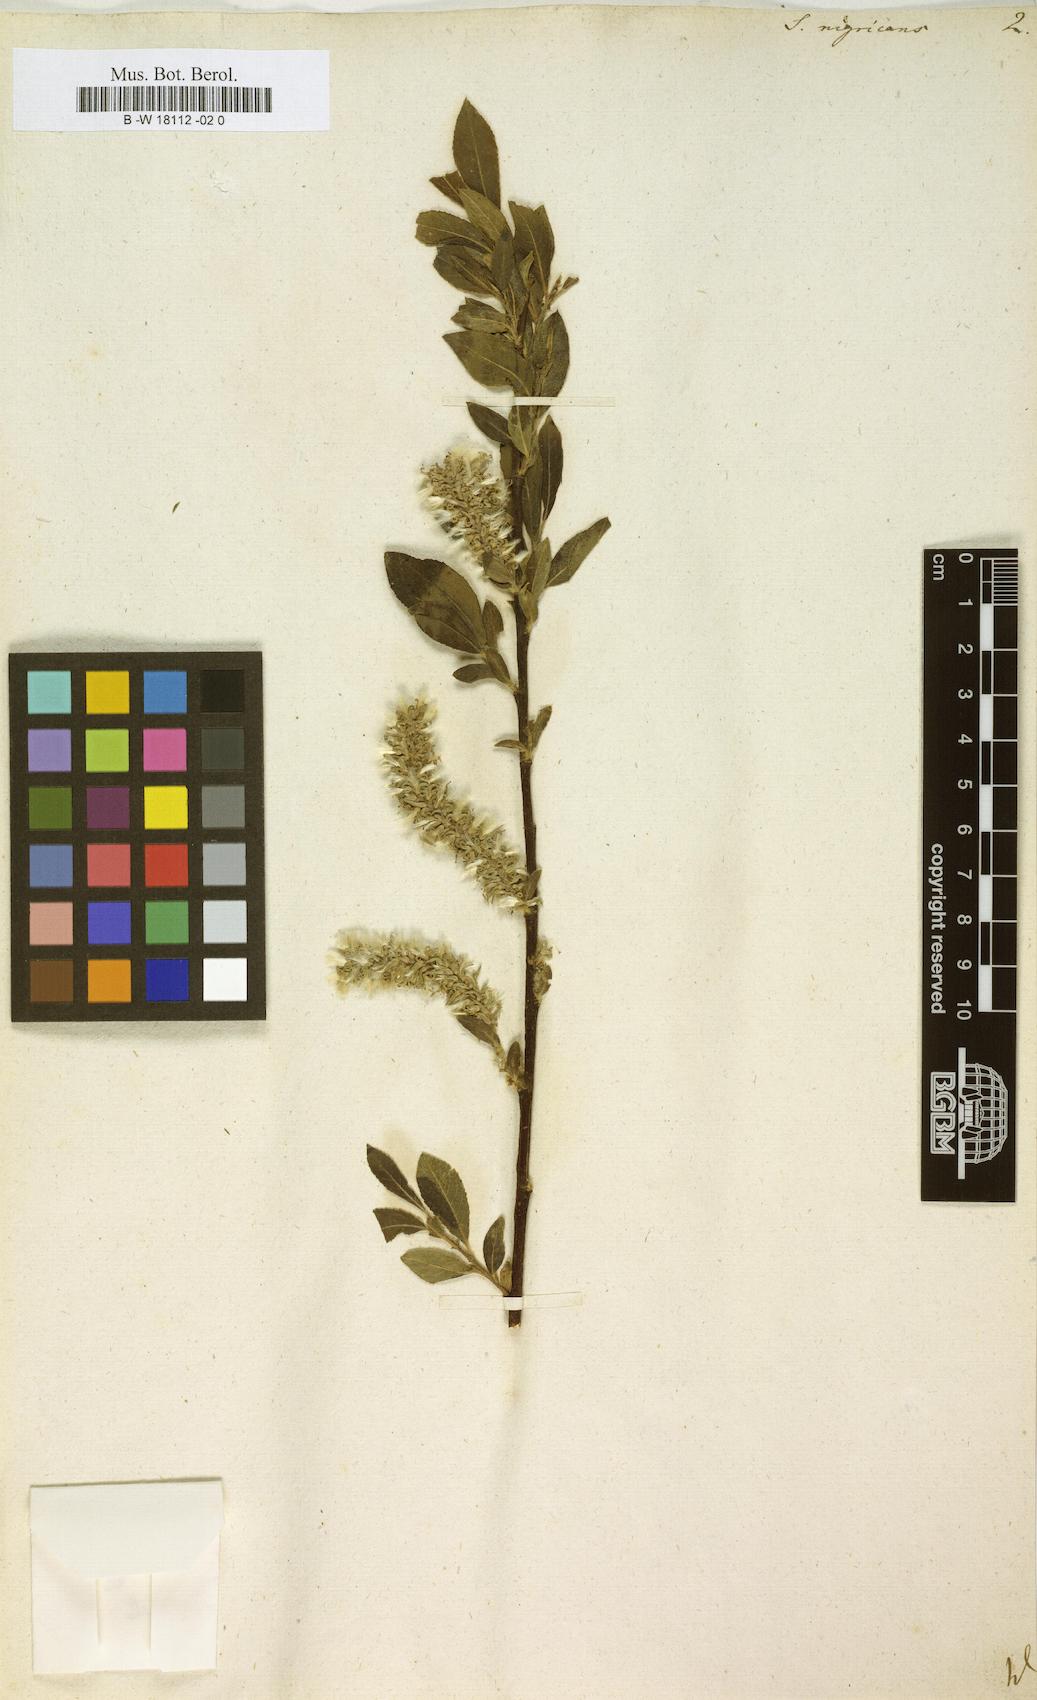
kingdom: Plantae
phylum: Tracheophyta
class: Magnoliopsida
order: Malpighiales
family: Salicaceae
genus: Salix
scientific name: Salix myrsinifolia
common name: Dark-leaved willow
